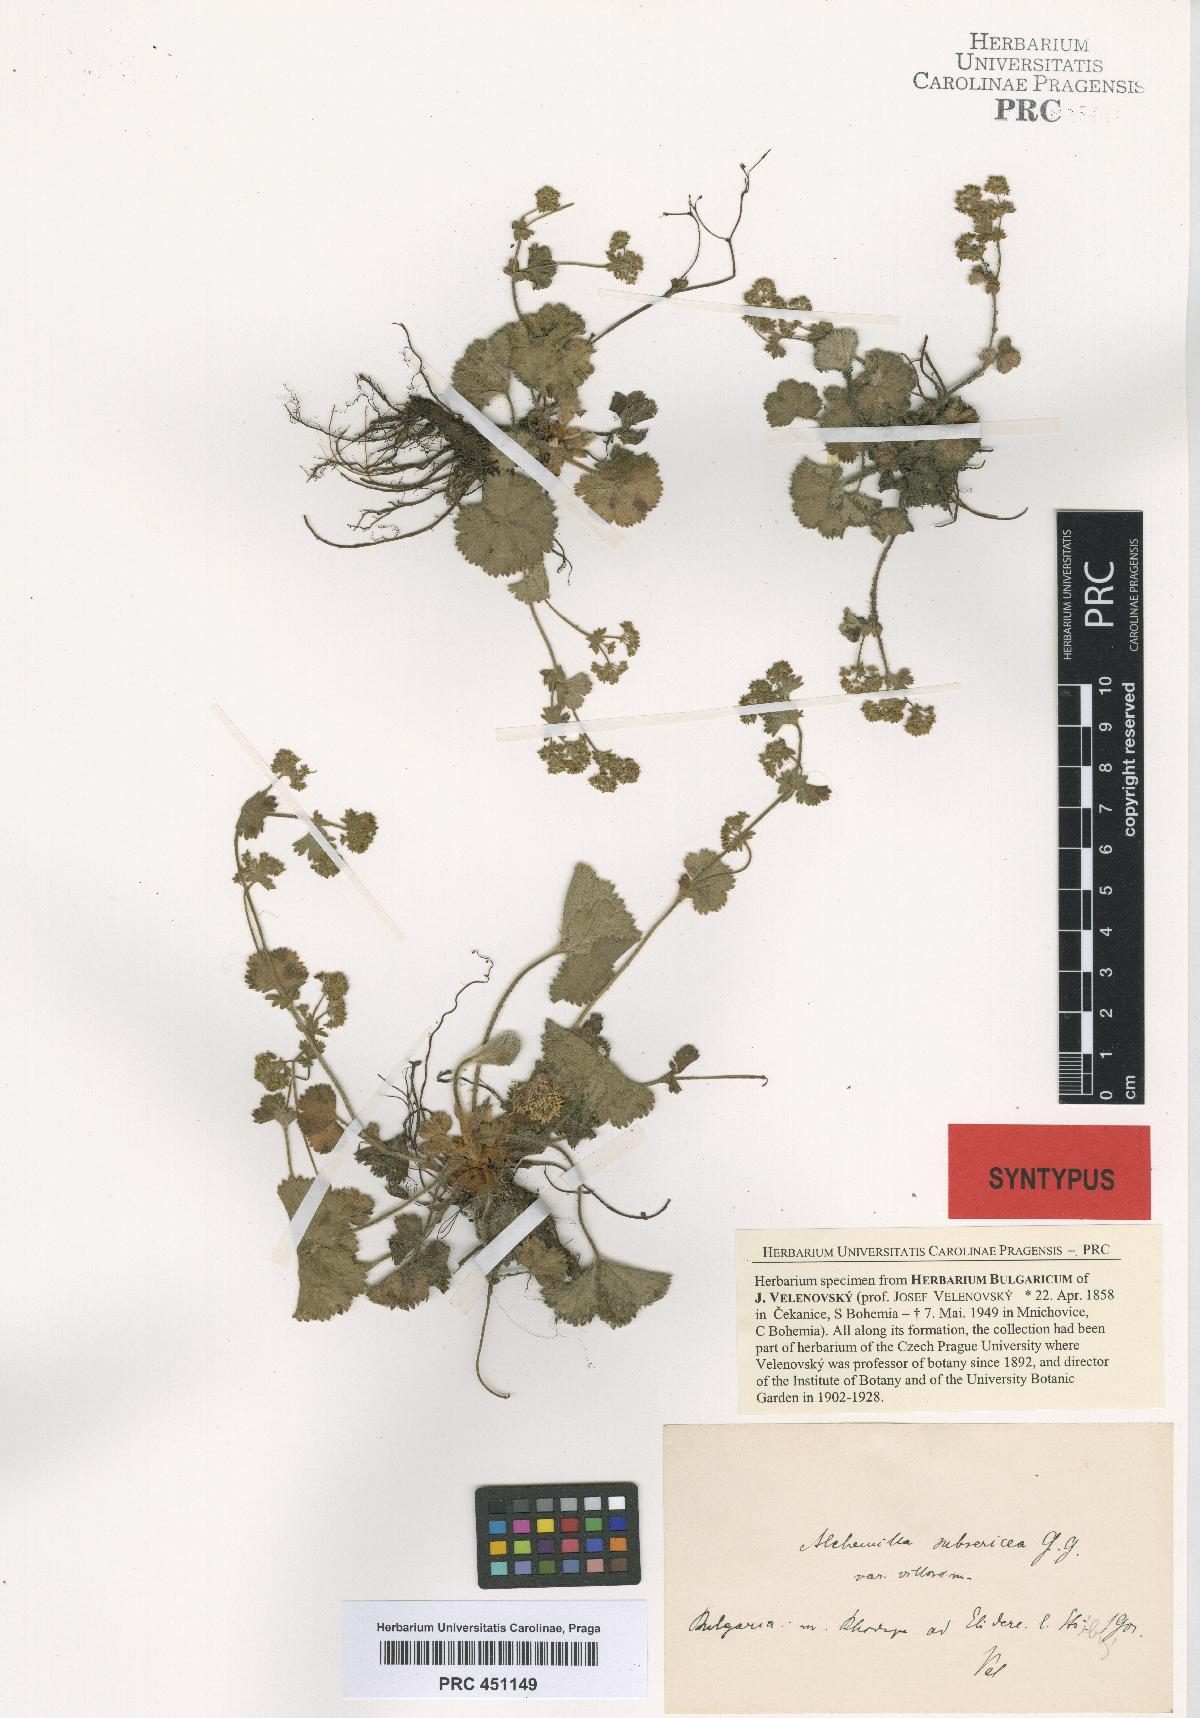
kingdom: Plantae
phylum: Tracheophyta
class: Magnoliopsida
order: Rosales
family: Rosaceae
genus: Alchemilla
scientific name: Alchemilla subsericea
